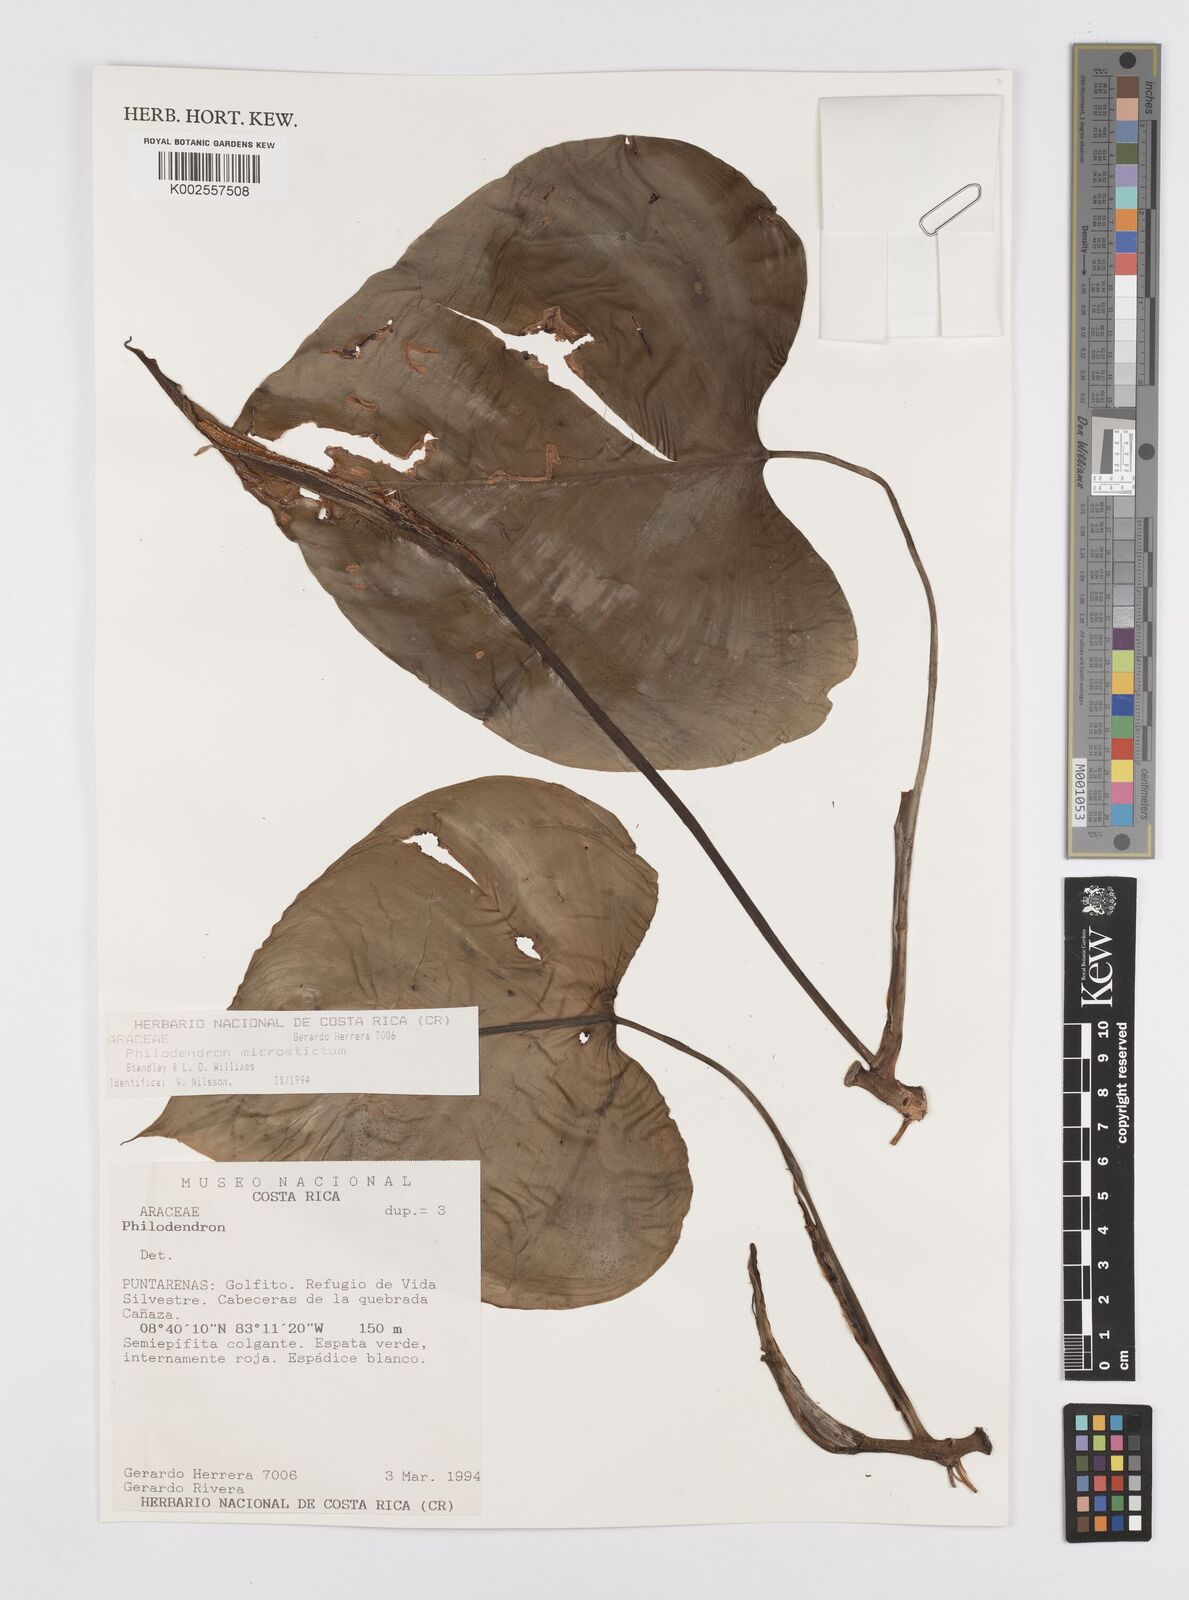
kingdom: Plantae
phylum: Tracheophyta
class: Liliopsida
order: Alismatales
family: Araceae
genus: Philodendron
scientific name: Philodendron microstictum
